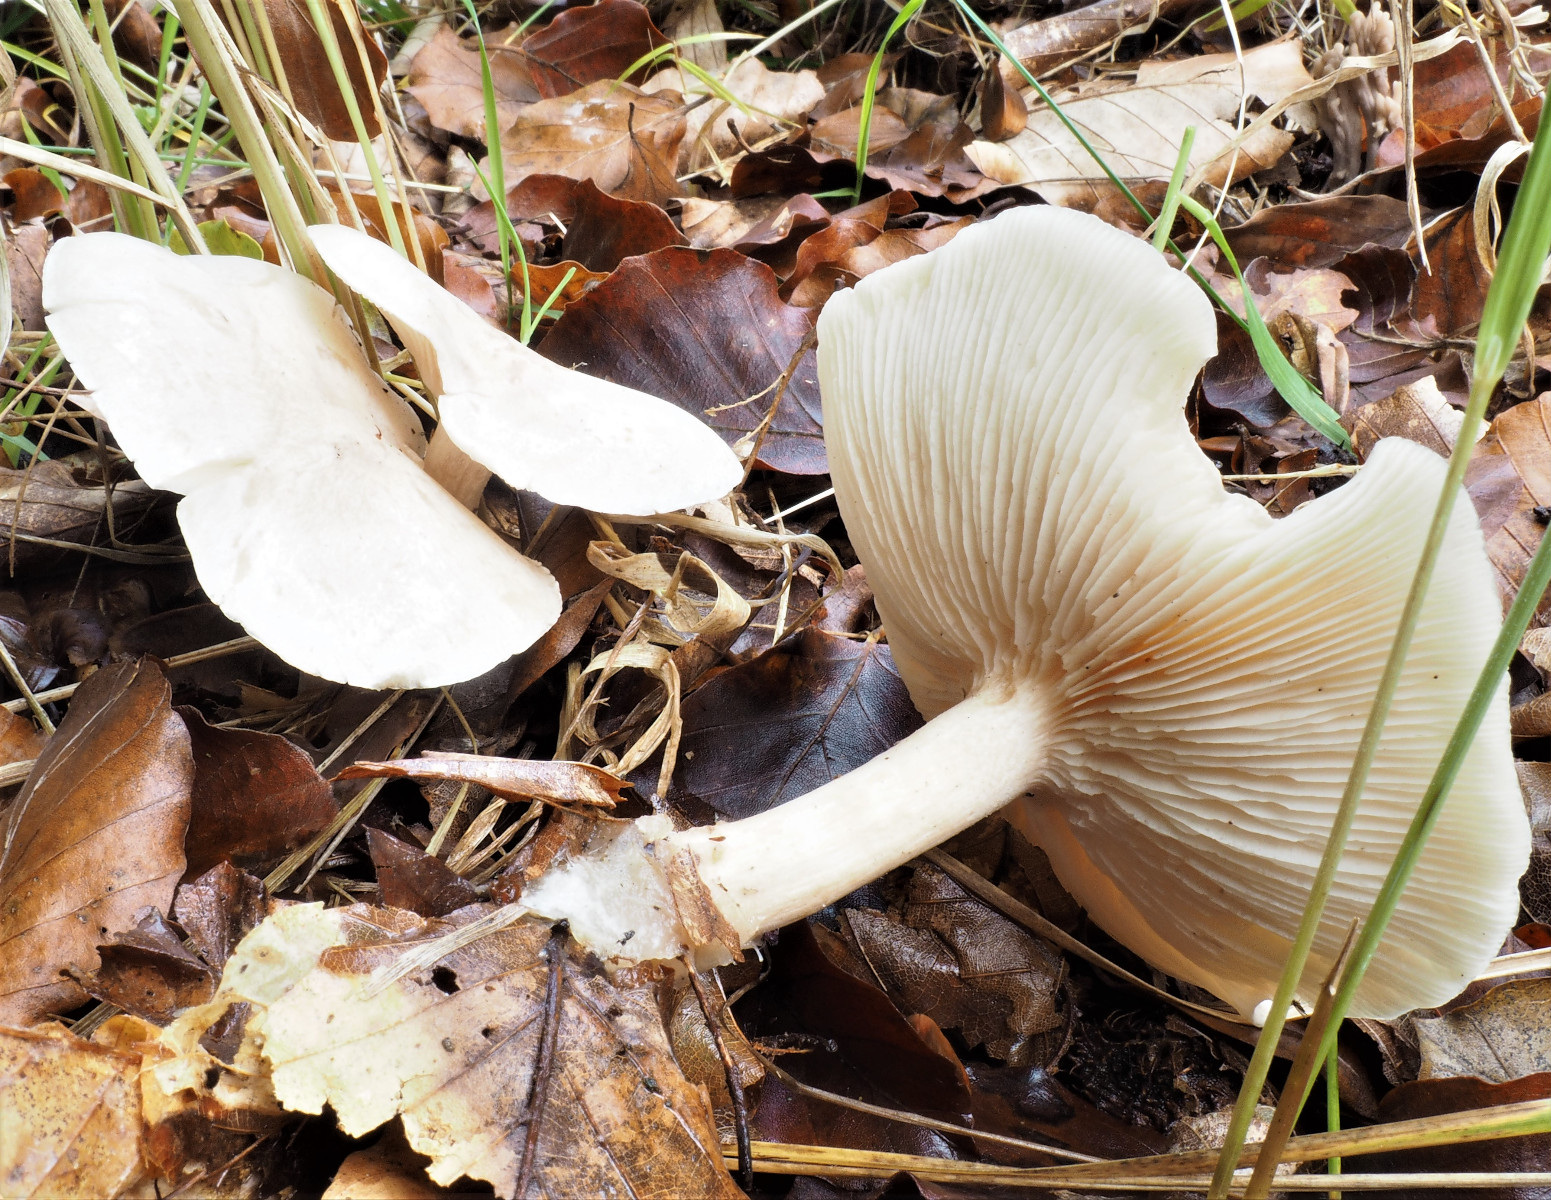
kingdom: Fungi
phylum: Basidiomycota
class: Agaricomycetes
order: Agaricales
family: Tricholomataceae
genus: Clitocybe
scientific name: Clitocybe phyllophila
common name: løv-tragthat
